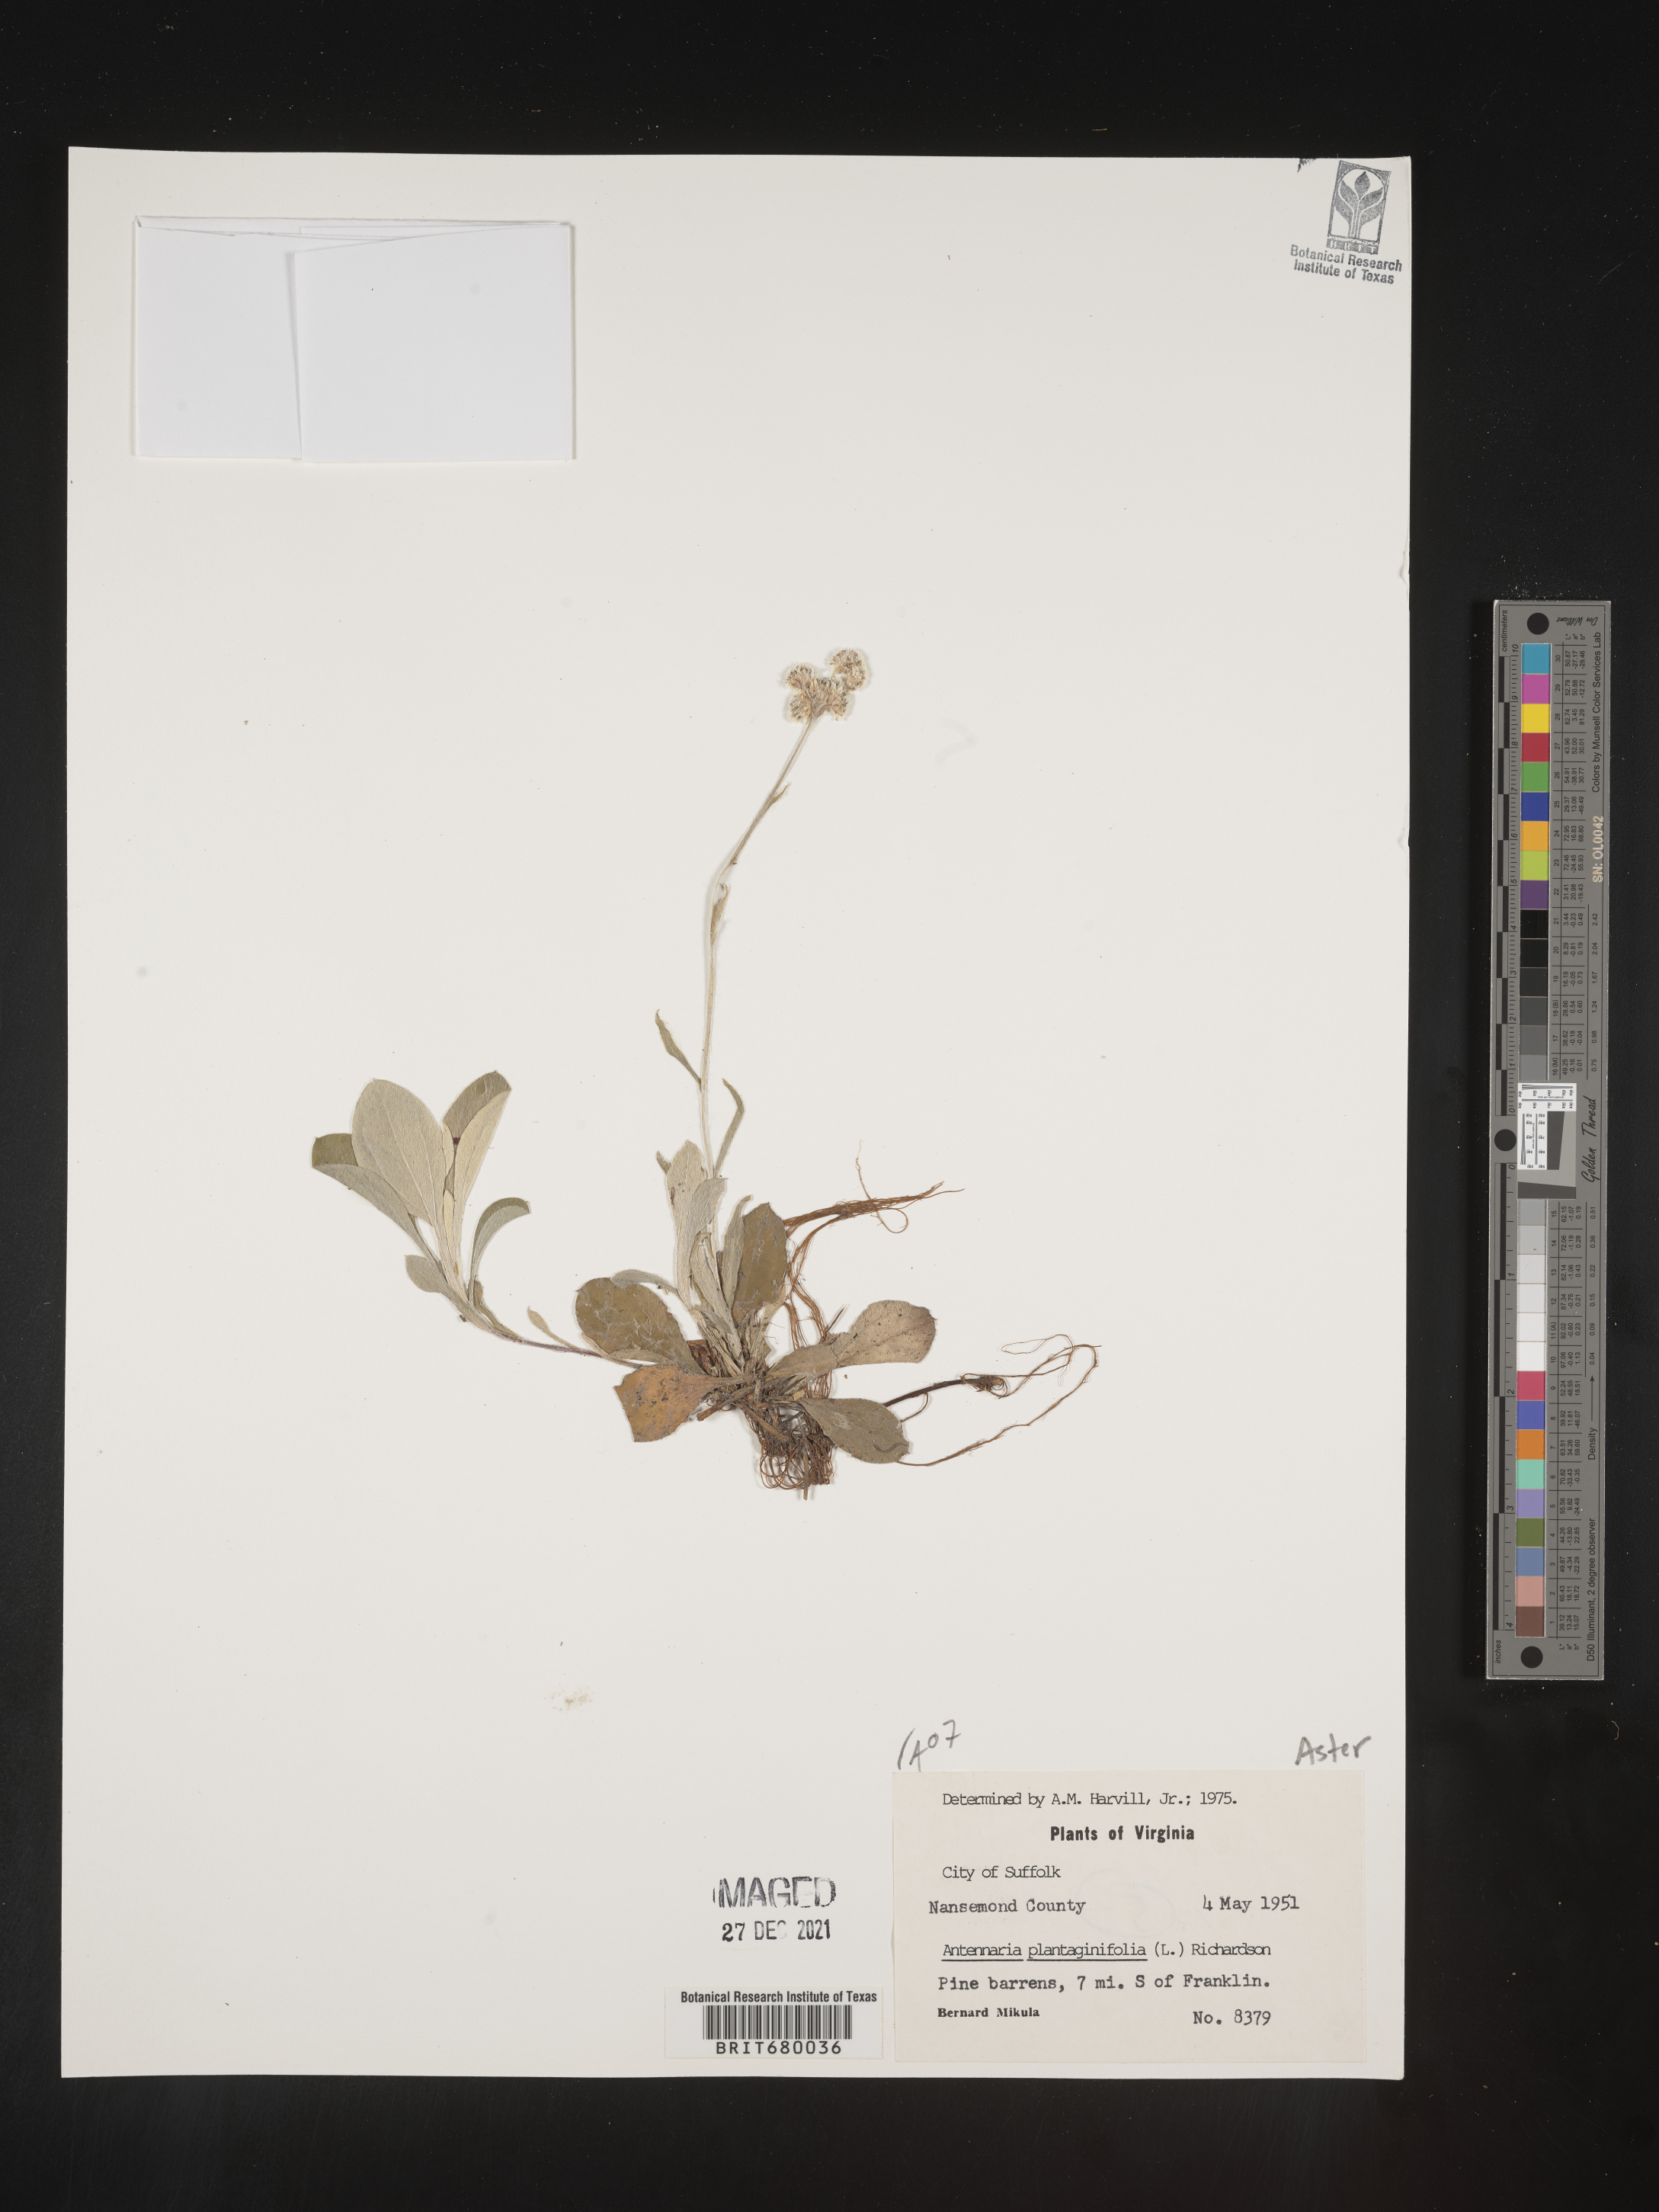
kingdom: Plantae
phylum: Tracheophyta
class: Magnoliopsida
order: Asterales
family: Asteraceae
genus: Antennaria
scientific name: Antennaria plantaginifolia
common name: Plantain-leaved pussytoes
